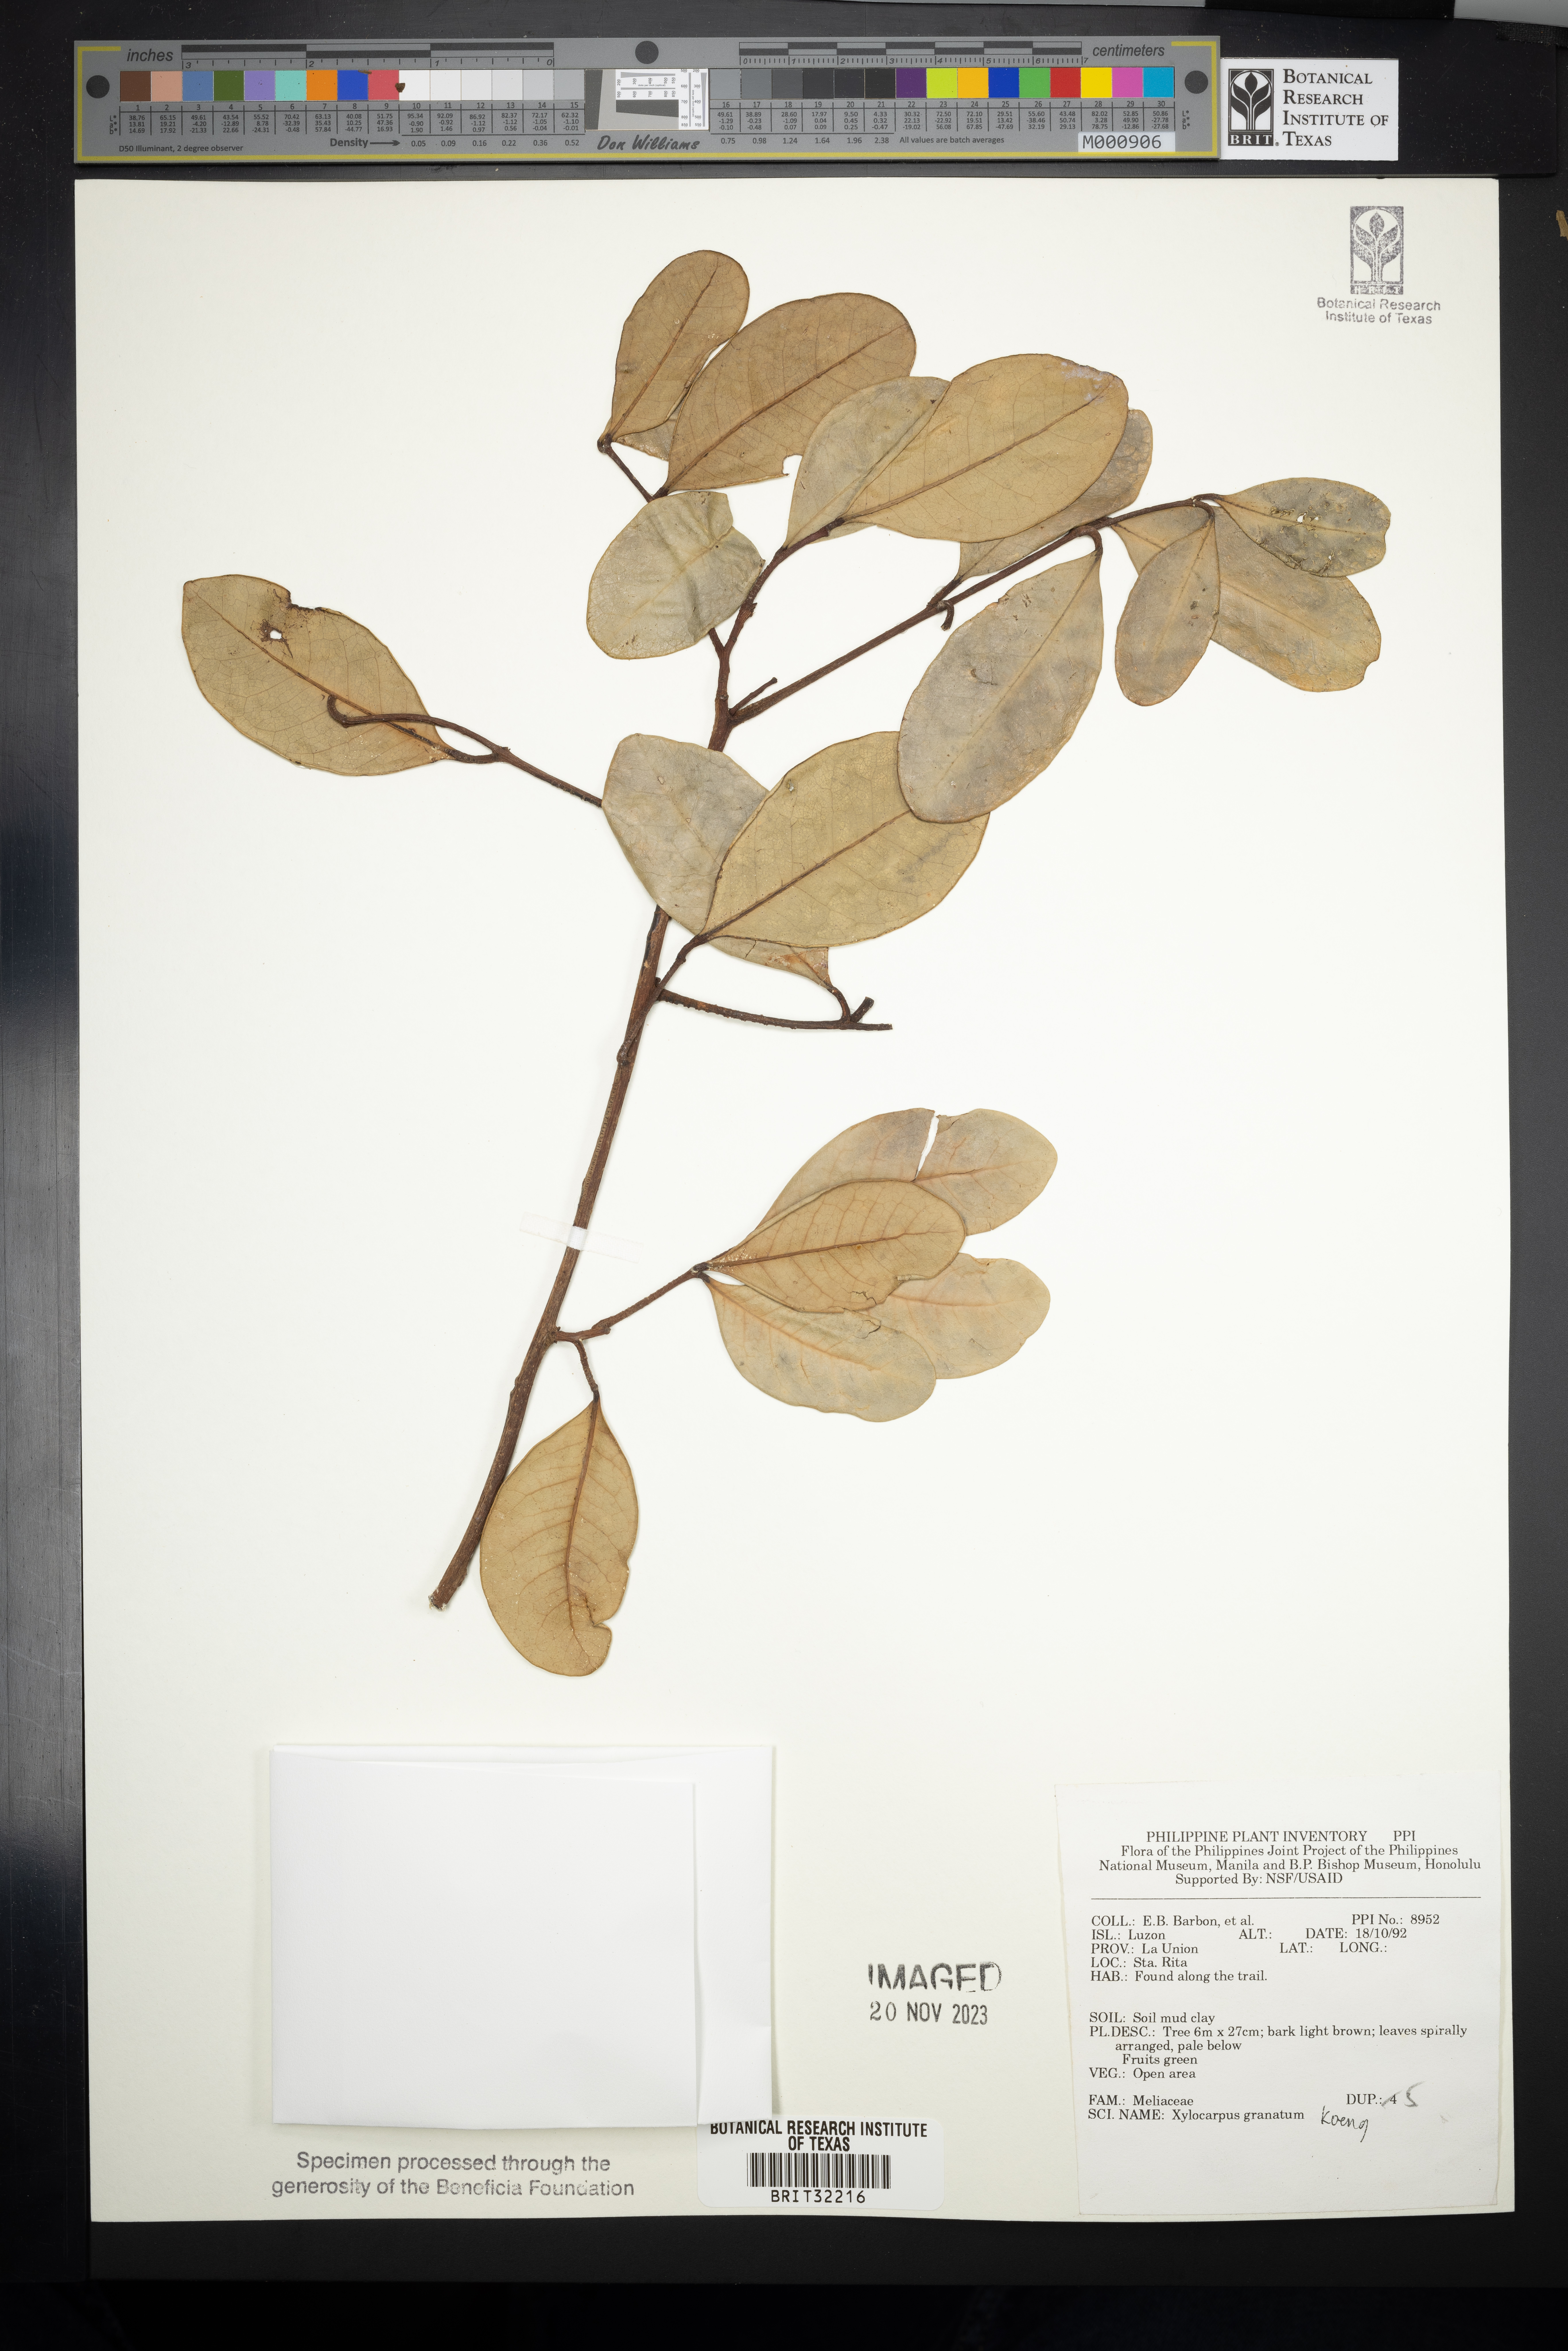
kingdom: Plantae
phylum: Tracheophyta
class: Magnoliopsida
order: Sapindales
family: Meliaceae
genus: Xylocarpus
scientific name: Xylocarpus granatum
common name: Apple mangrove
